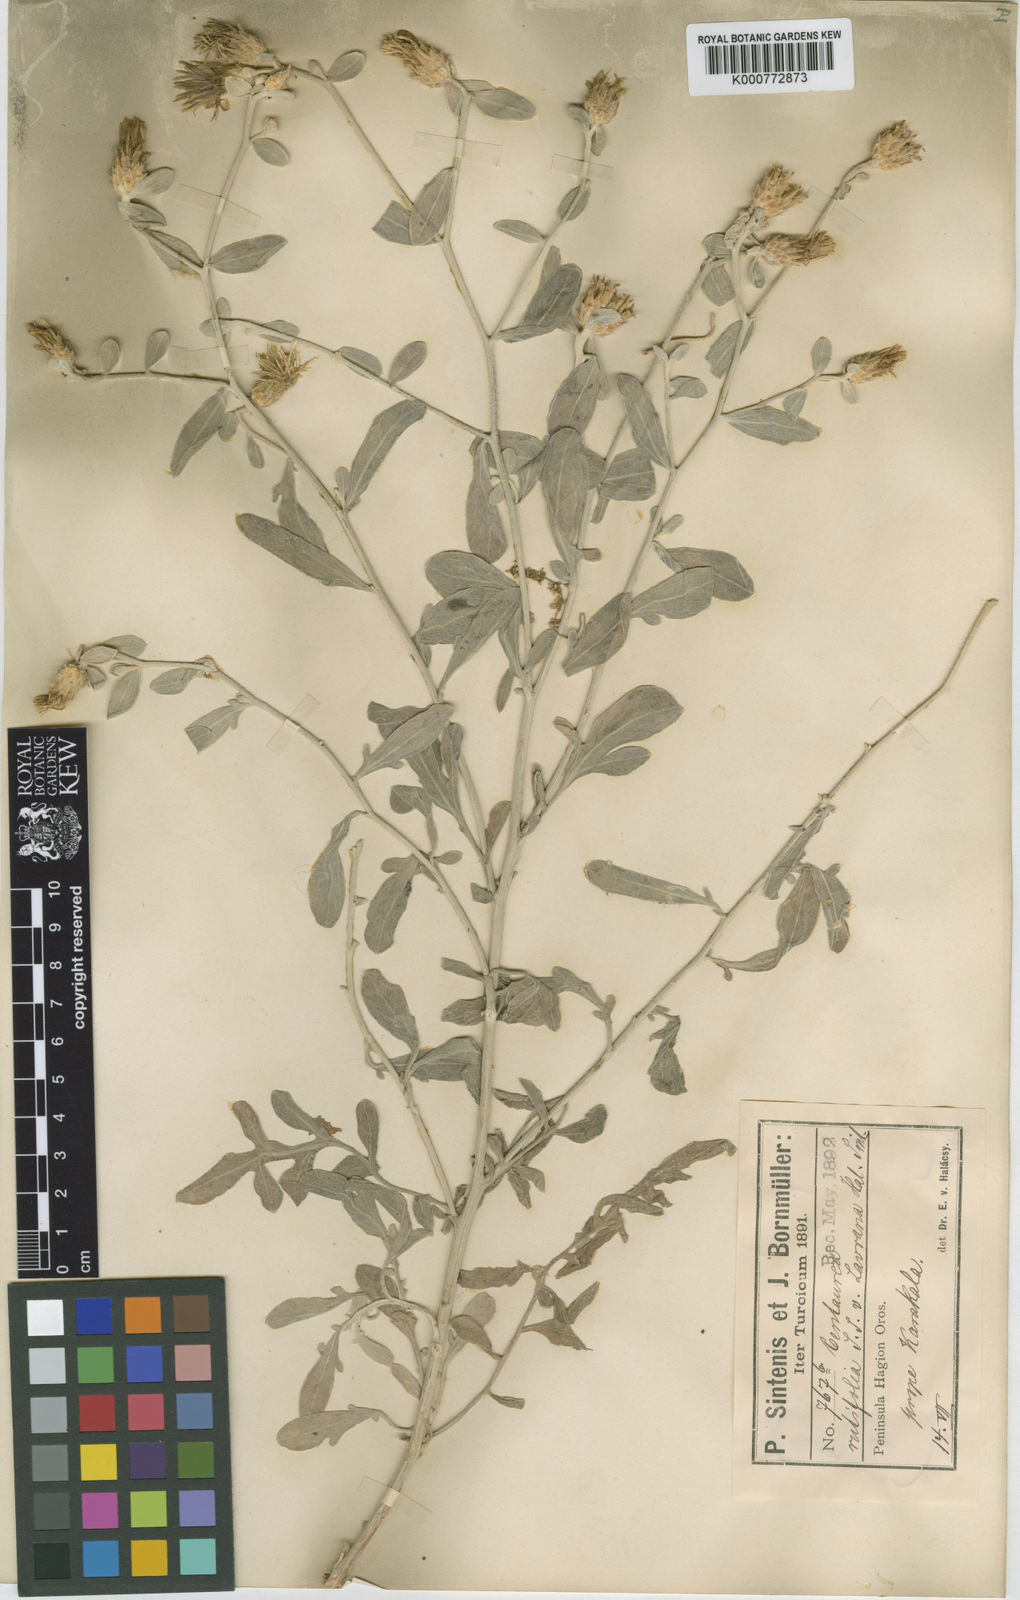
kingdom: Plantae
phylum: Tracheophyta
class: Magnoliopsida
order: Asterales
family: Asteraceae
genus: Centaurea
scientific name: Centaurea rutifolia
